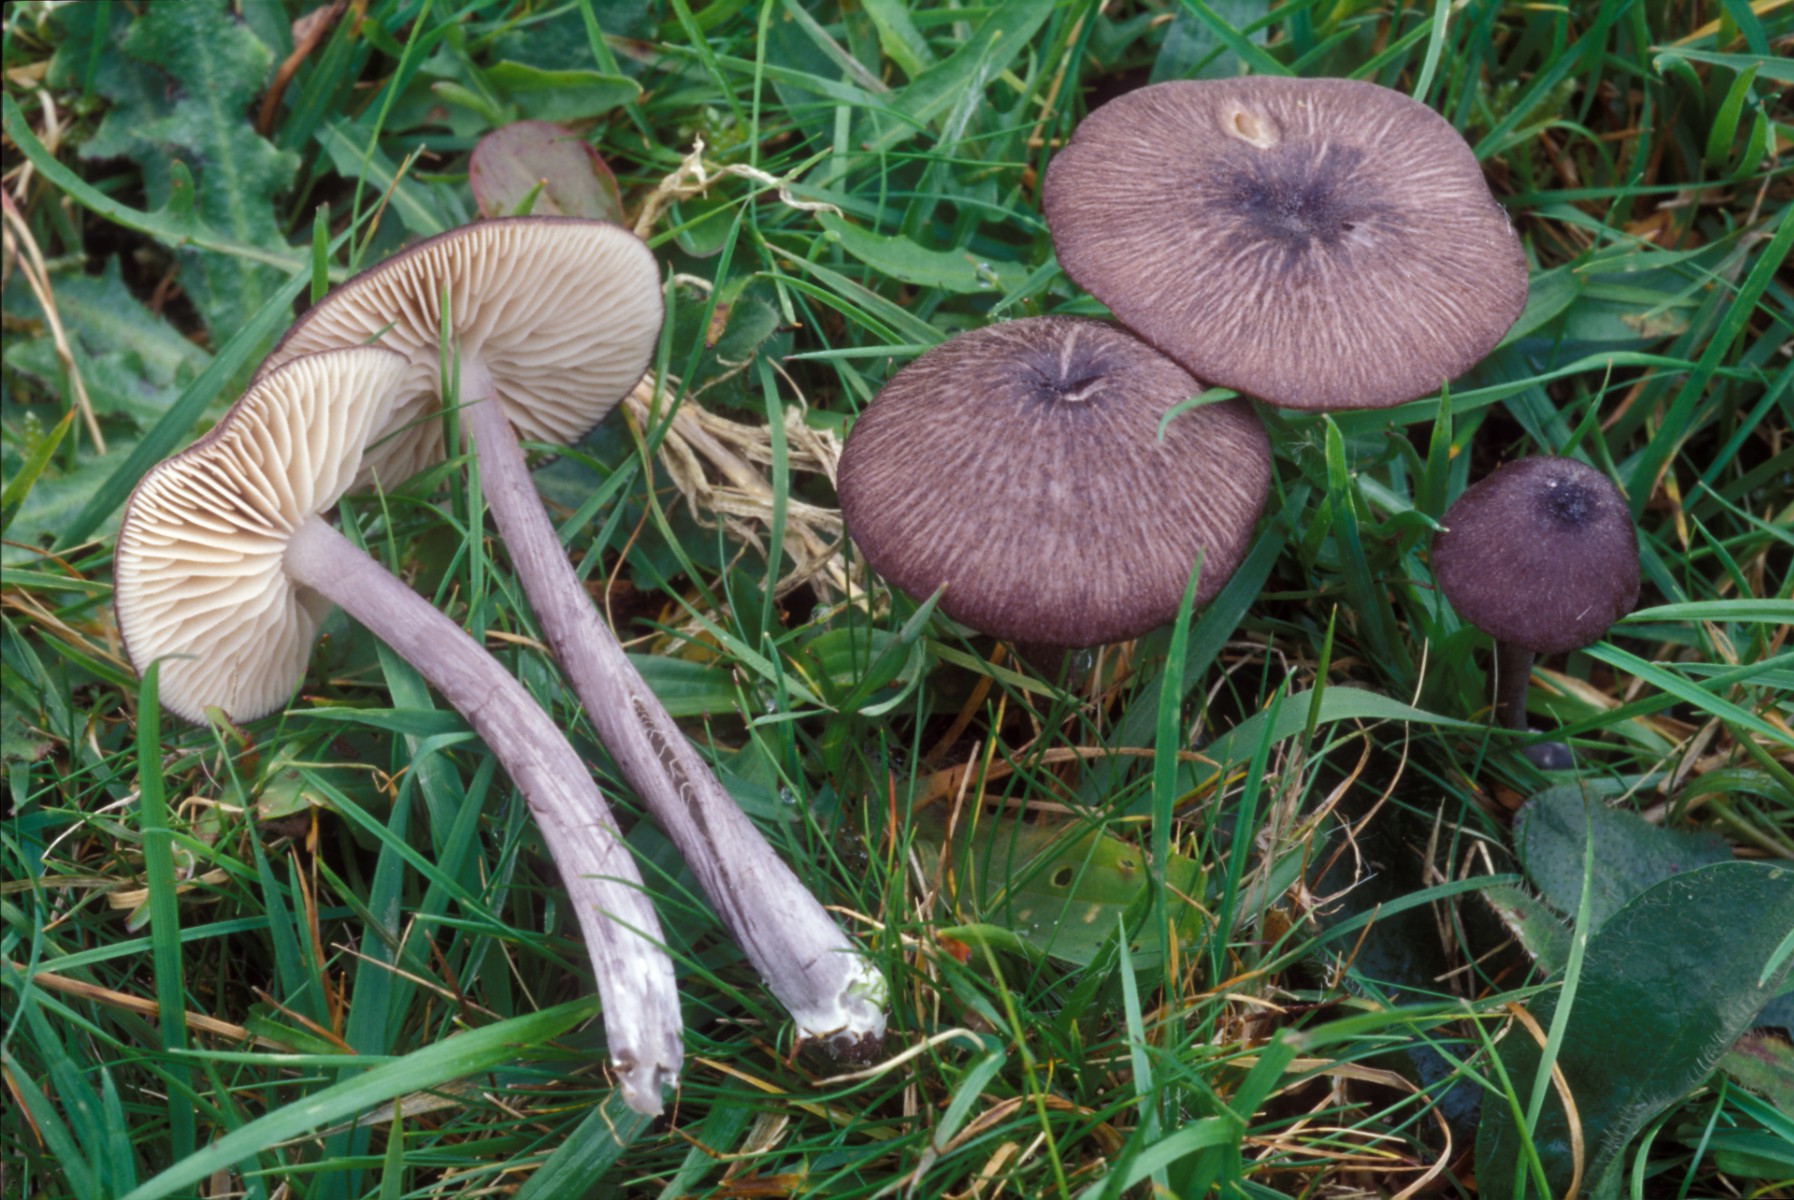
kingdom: Fungi
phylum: Basidiomycota
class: Agaricomycetes
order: Agaricales
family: Entolomataceae
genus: Entoloma
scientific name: Entoloma viiduense
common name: purpurbrun rødblad
